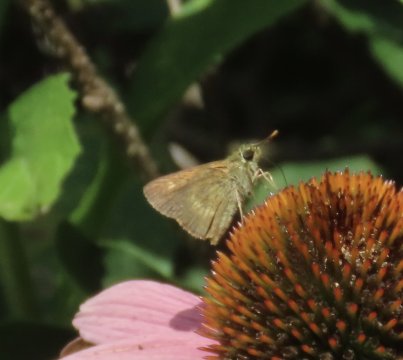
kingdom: Animalia
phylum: Arthropoda
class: Insecta
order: Lepidoptera
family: Hesperiidae
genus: Polites
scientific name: Polites egeremet
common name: Northern Broken-Dash
